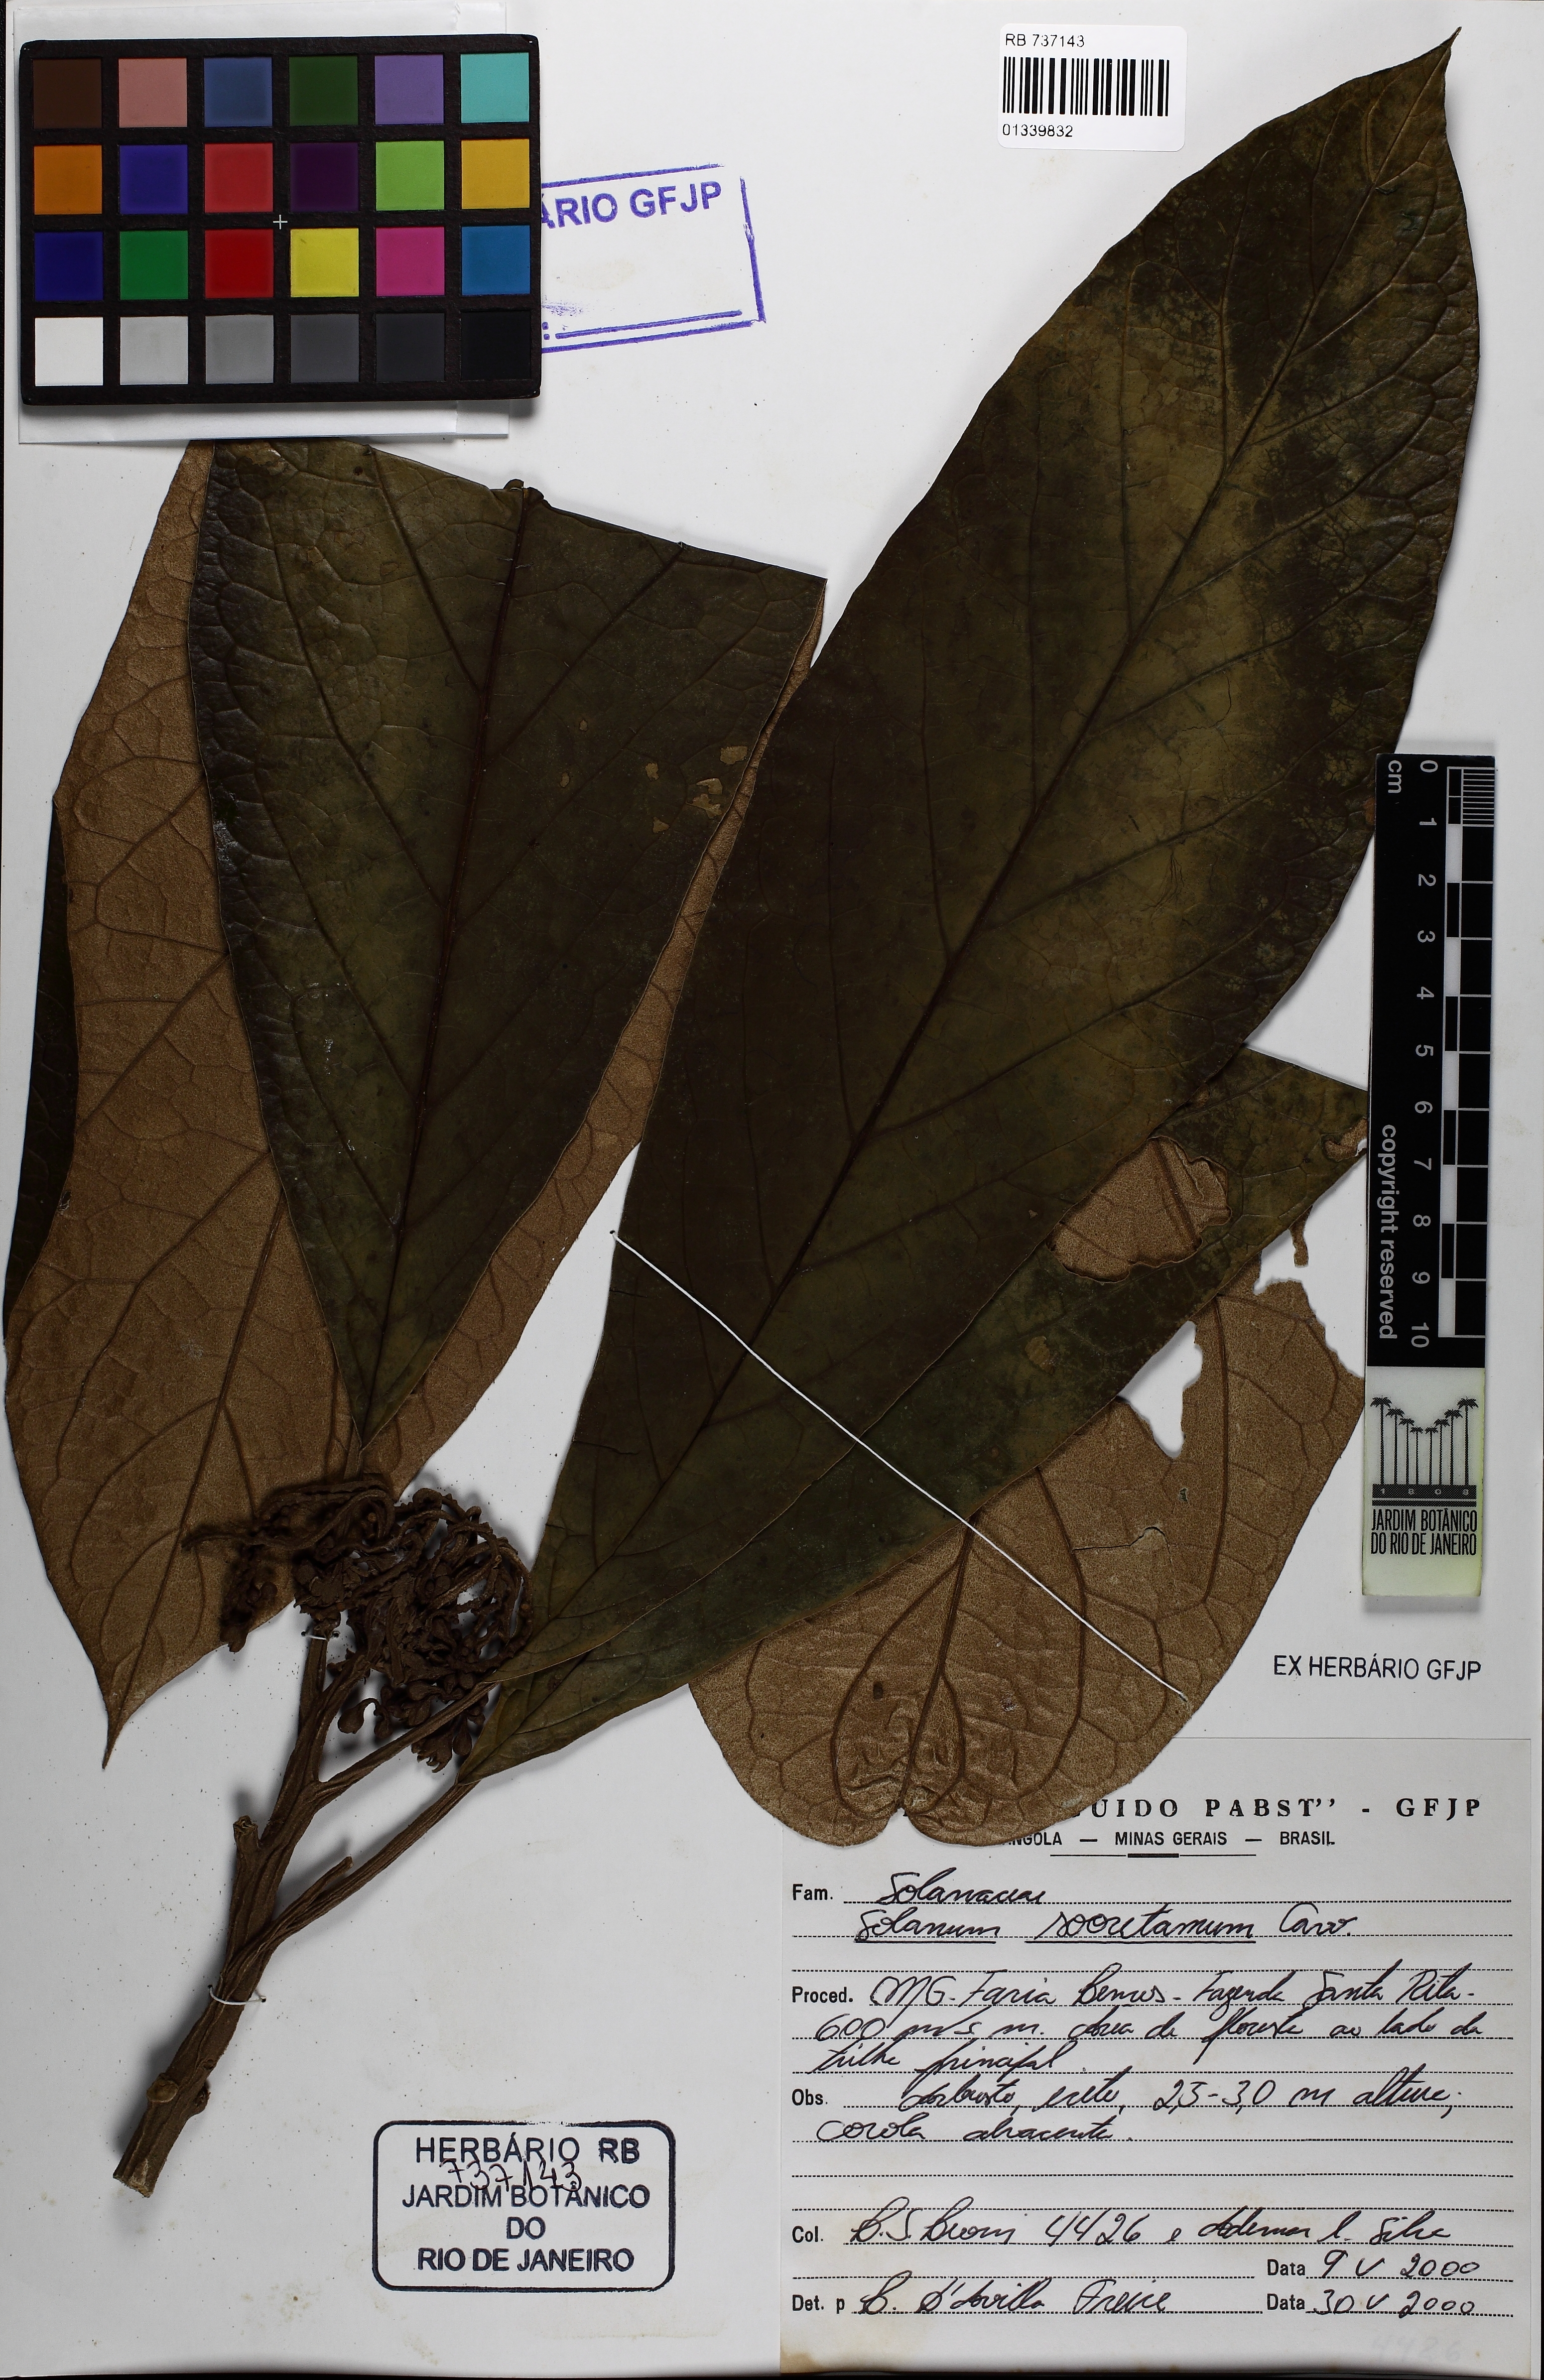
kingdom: Plantae
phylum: Tracheophyta
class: Magnoliopsida
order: Solanales
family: Solanaceae
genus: Solanum
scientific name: Solanum sooretamum
